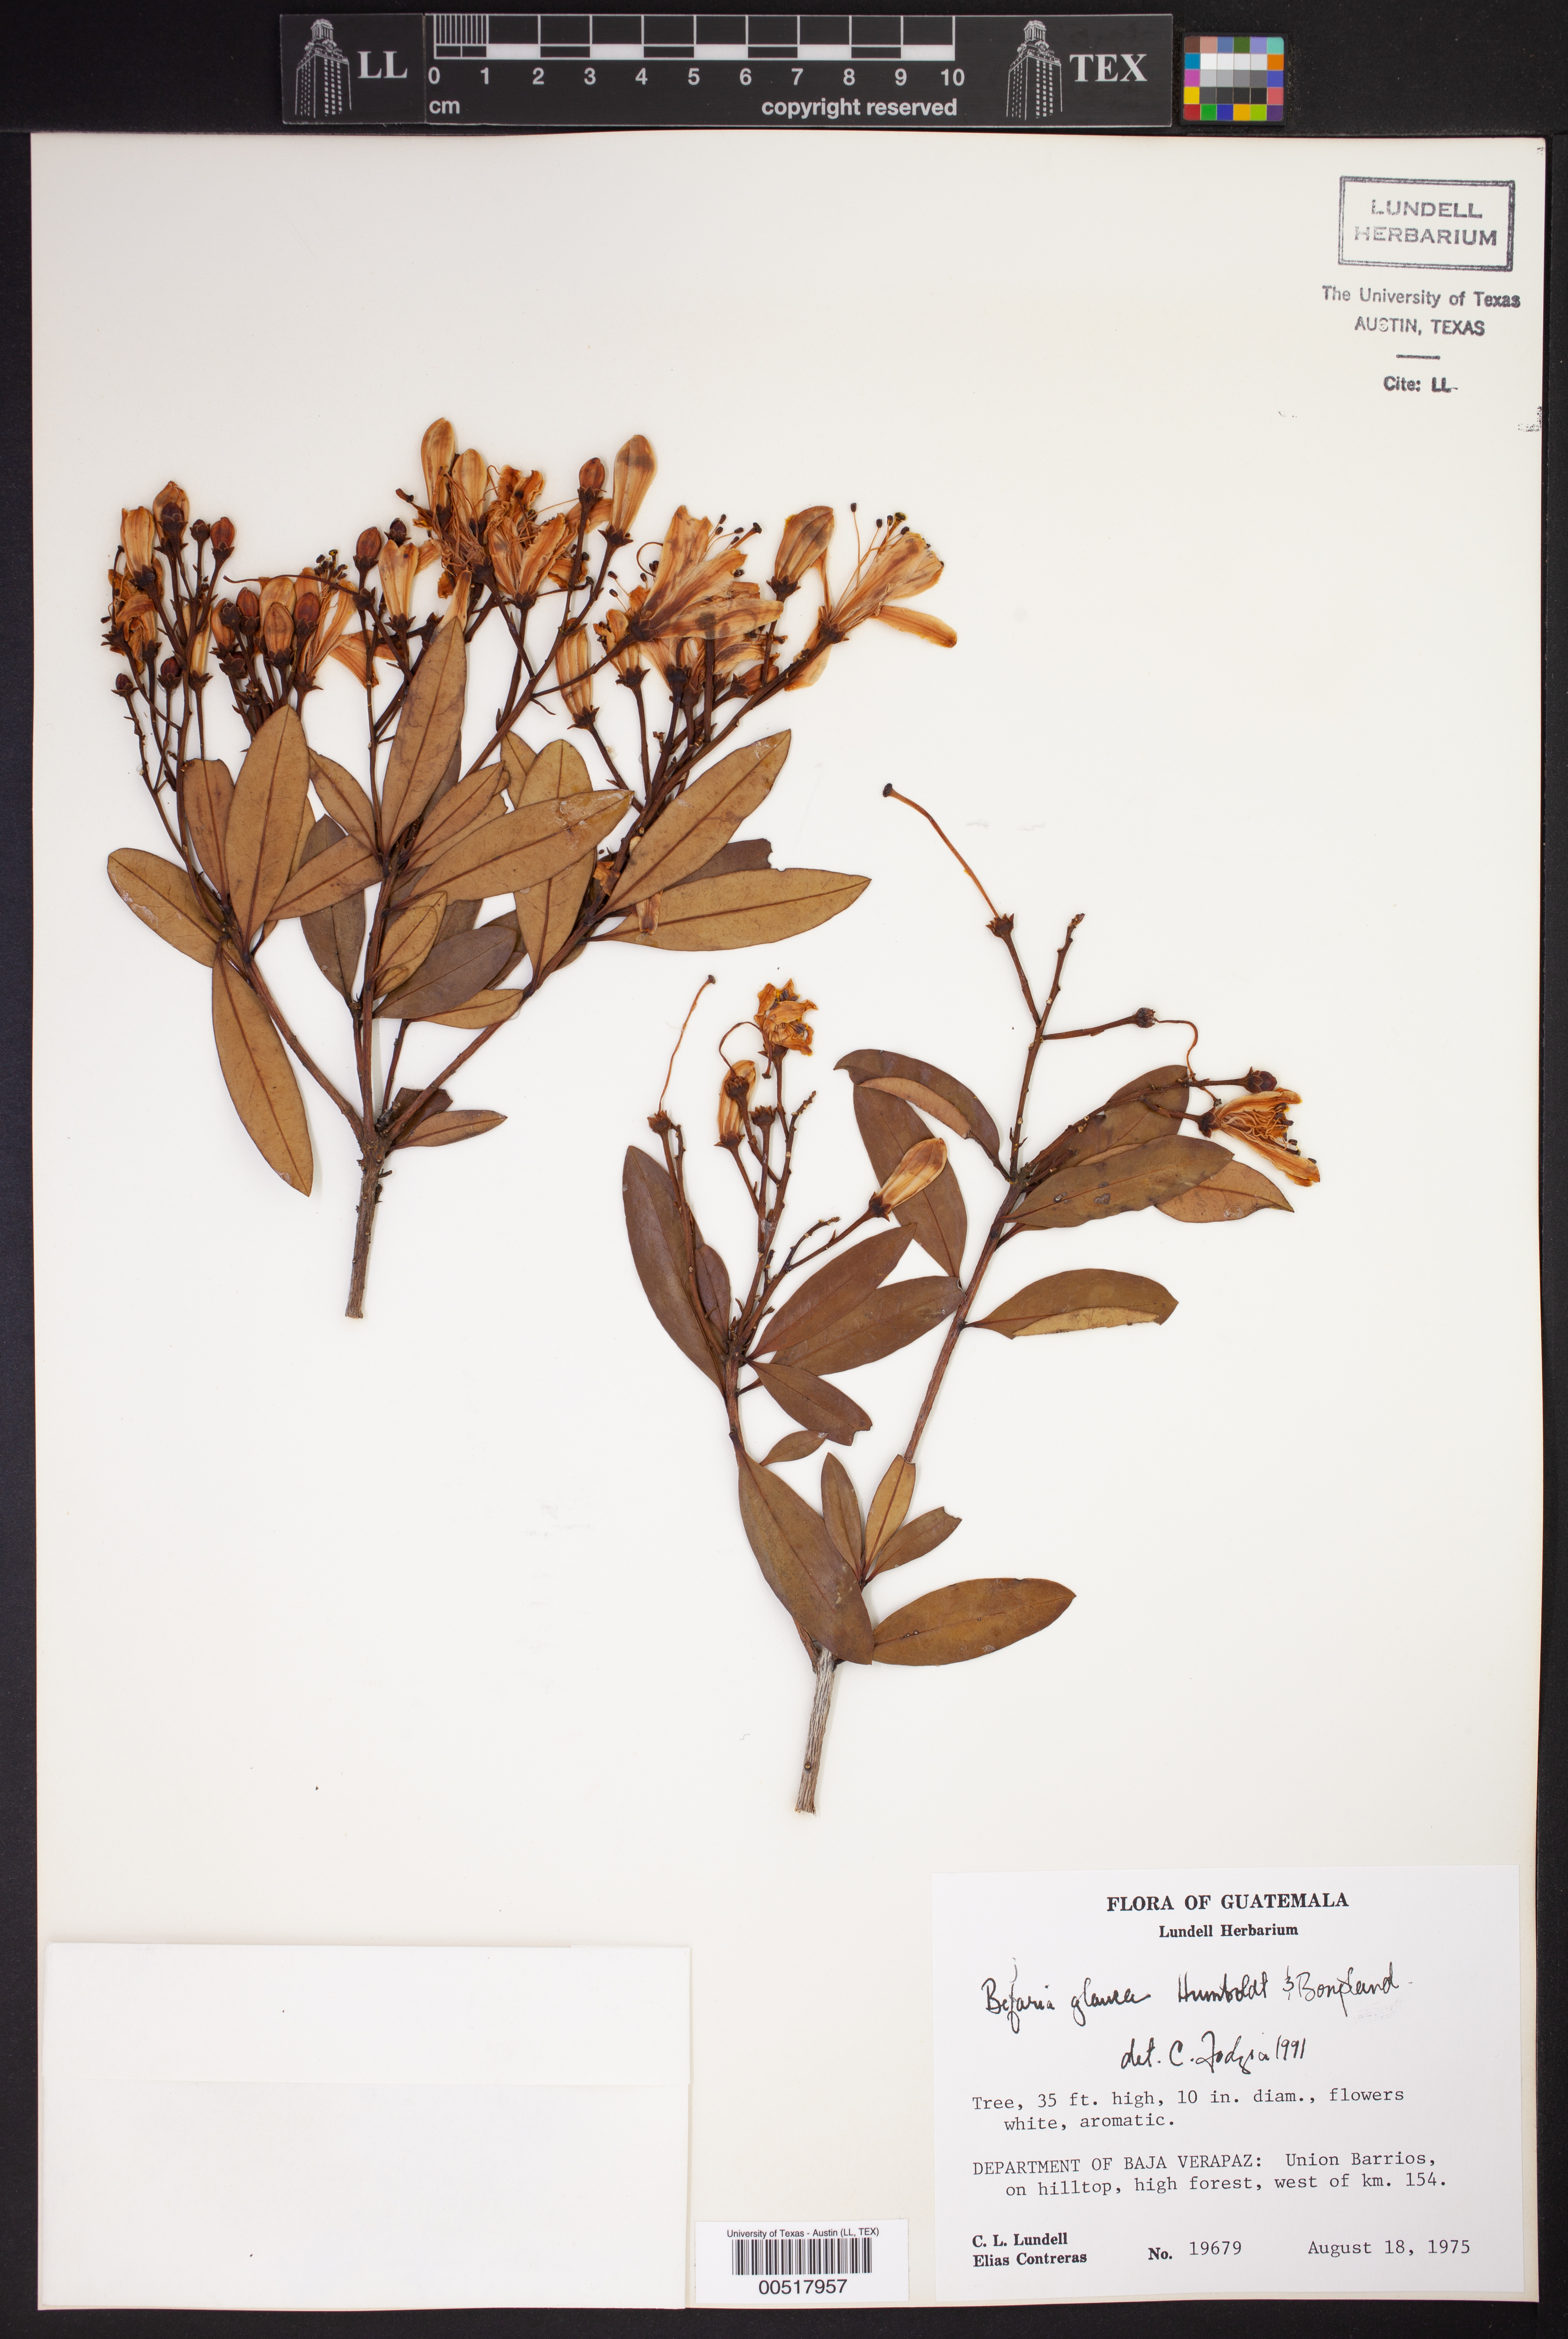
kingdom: Plantae
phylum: Tracheophyta
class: Magnoliopsida
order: Ericales
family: Ericaceae
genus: Bejaria
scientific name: Bejaria aestuans
